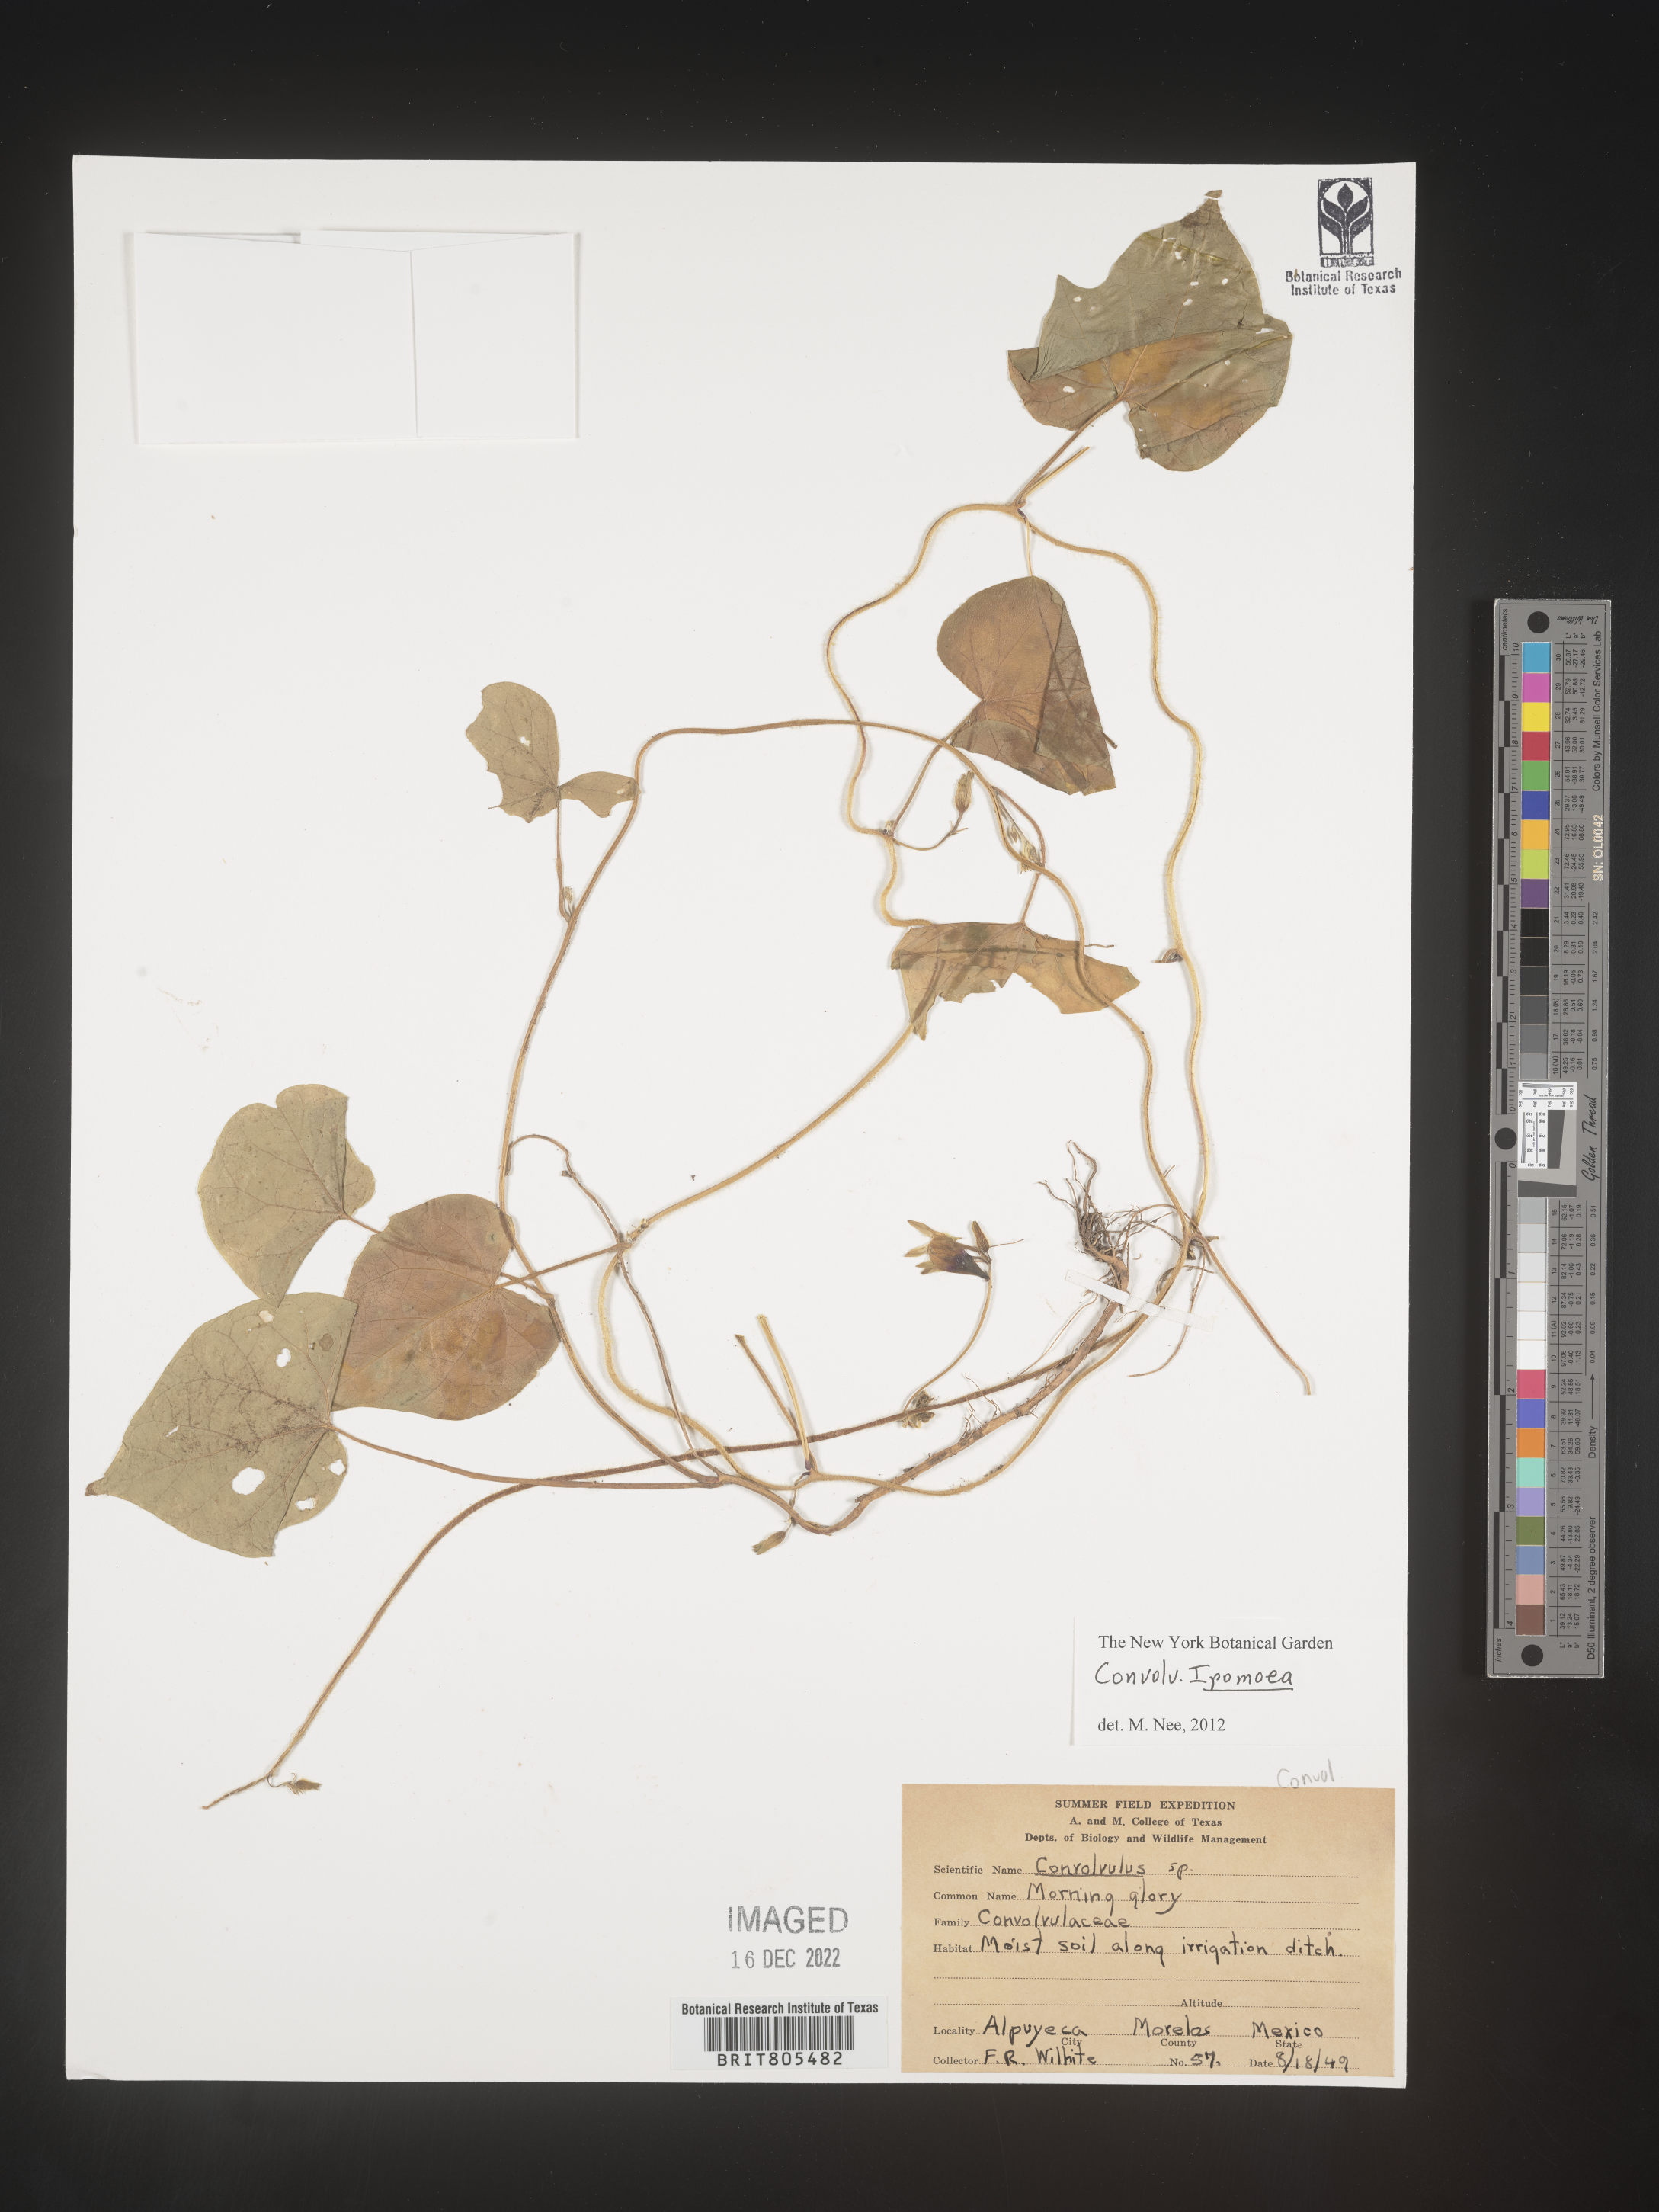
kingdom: Plantae
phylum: Tracheophyta
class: Magnoliopsida
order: Solanales
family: Convolvulaceae
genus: Ipomoea
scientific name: Ipomoea
